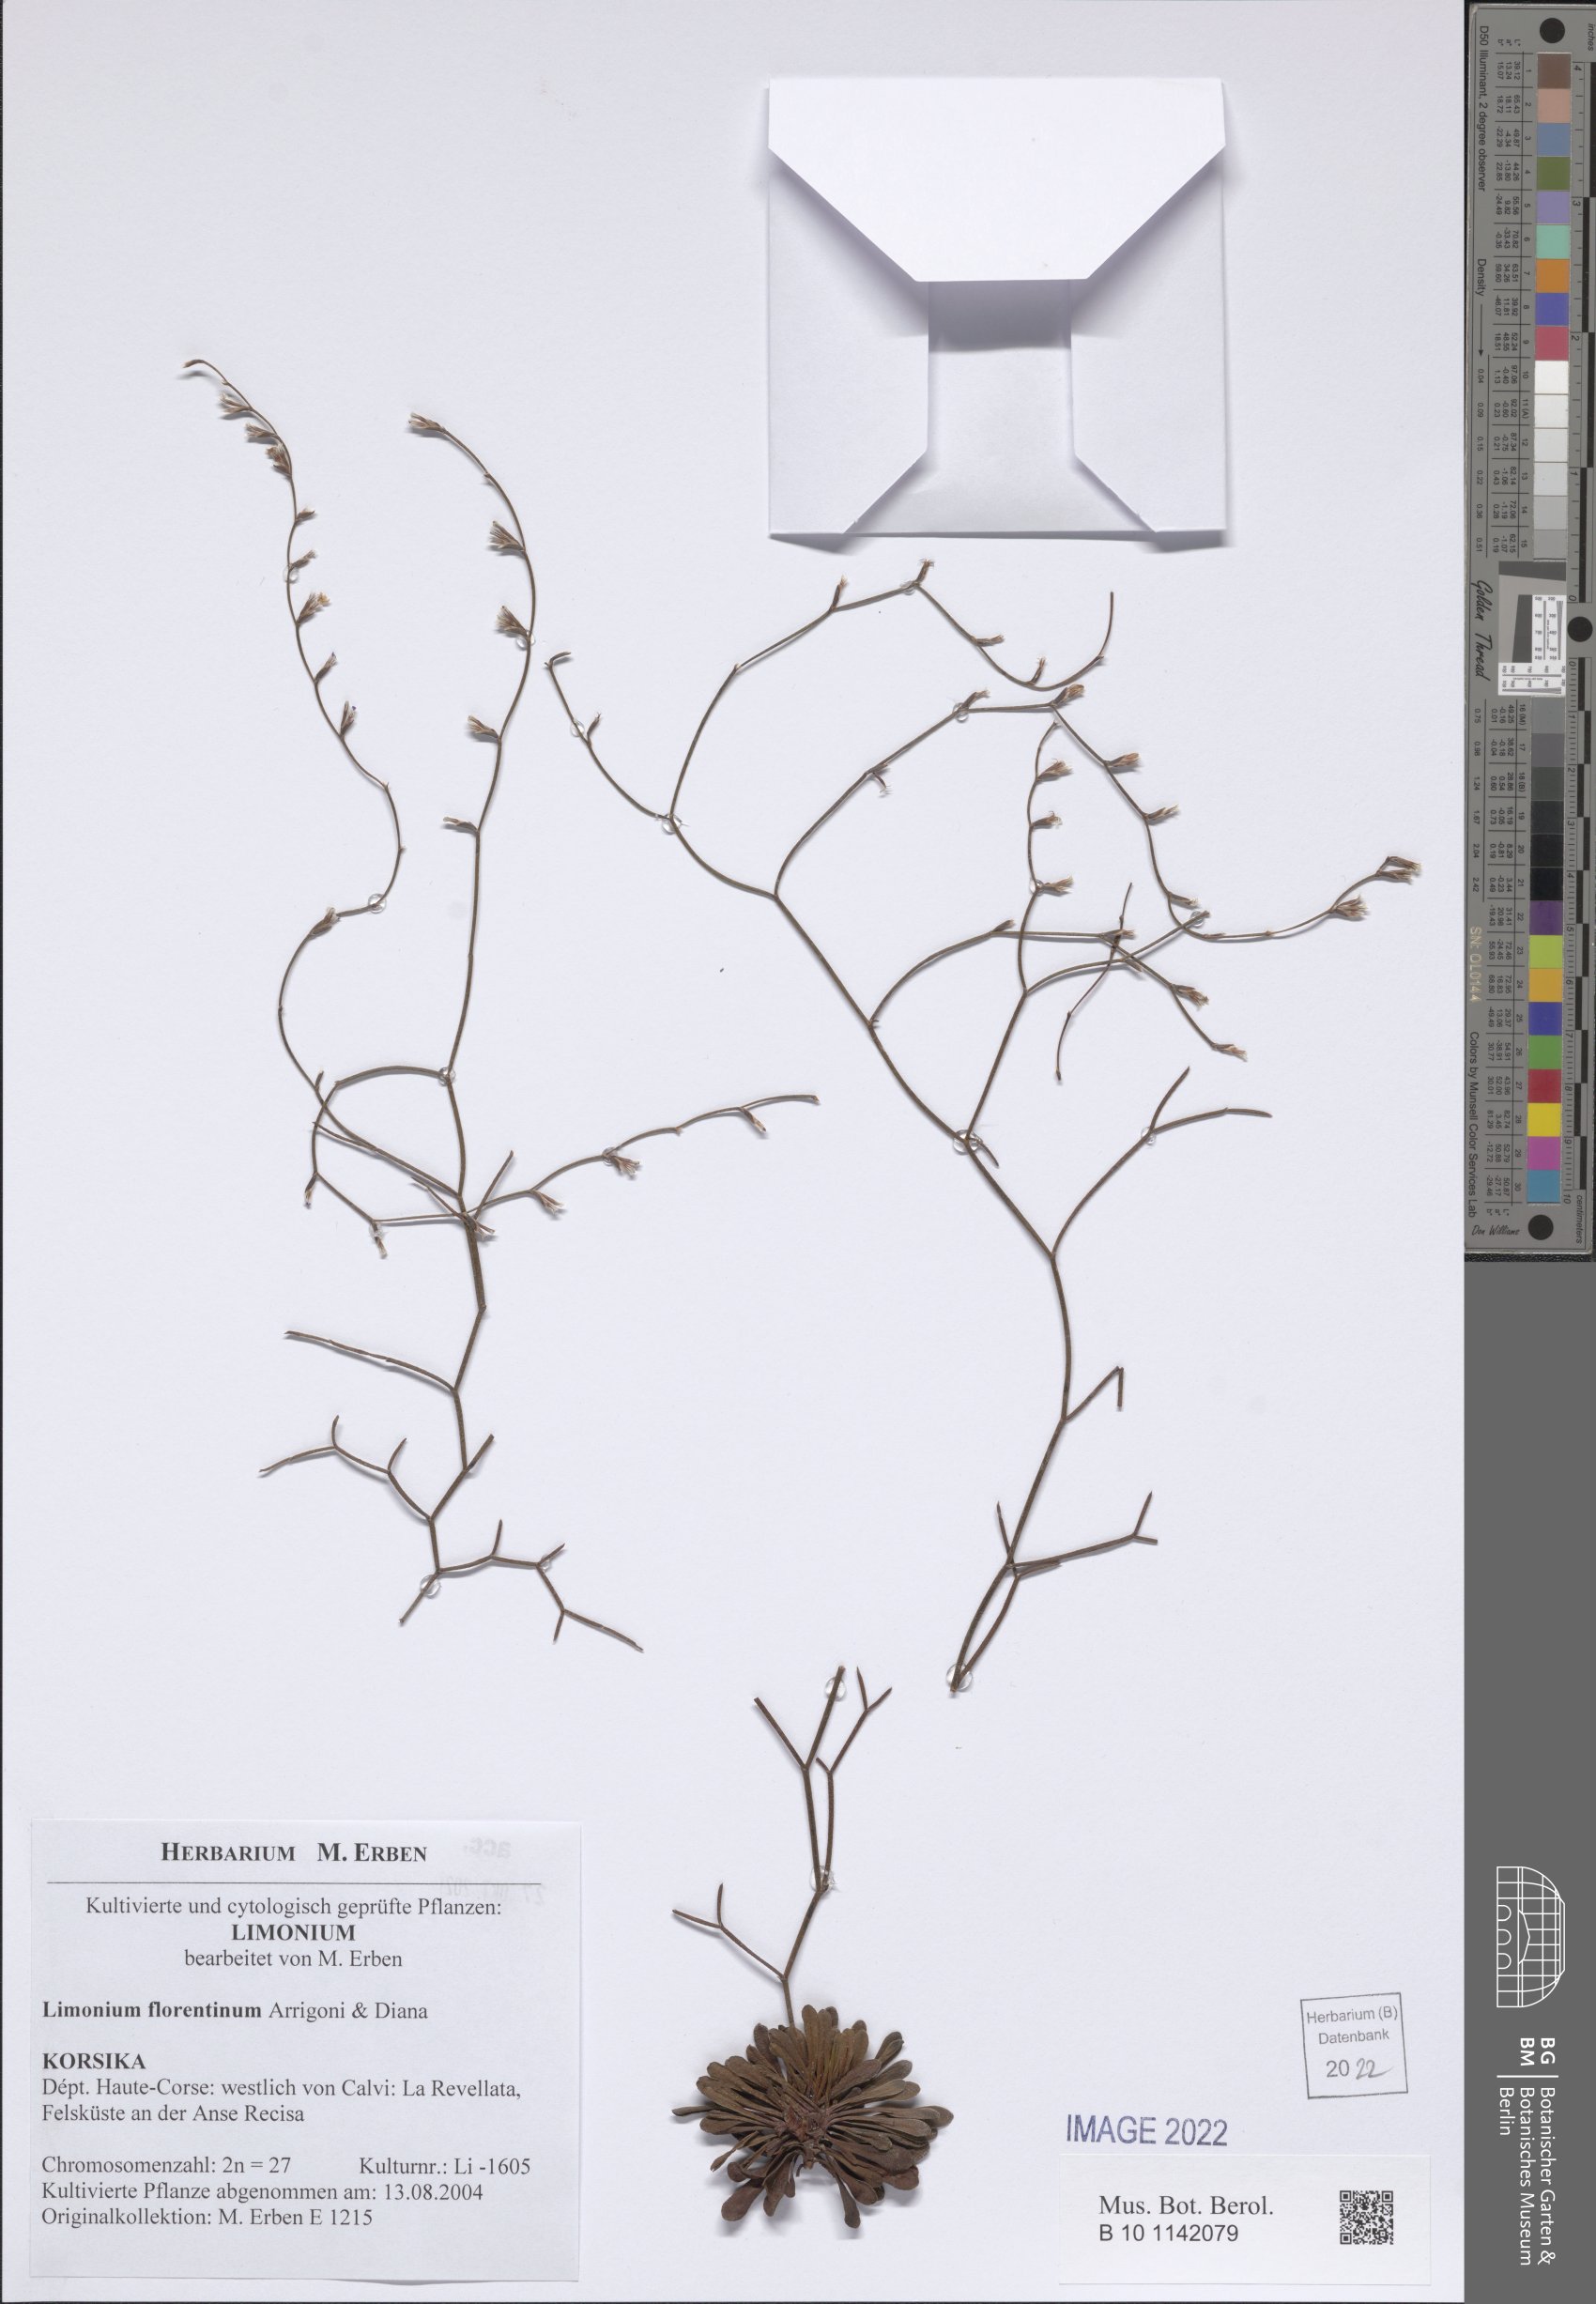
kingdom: Plantae
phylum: Tracheophyta
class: Magnoliopsida
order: Caryophyllales
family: Plumbaginaceae
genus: Limonium
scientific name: Limonium florentinum
